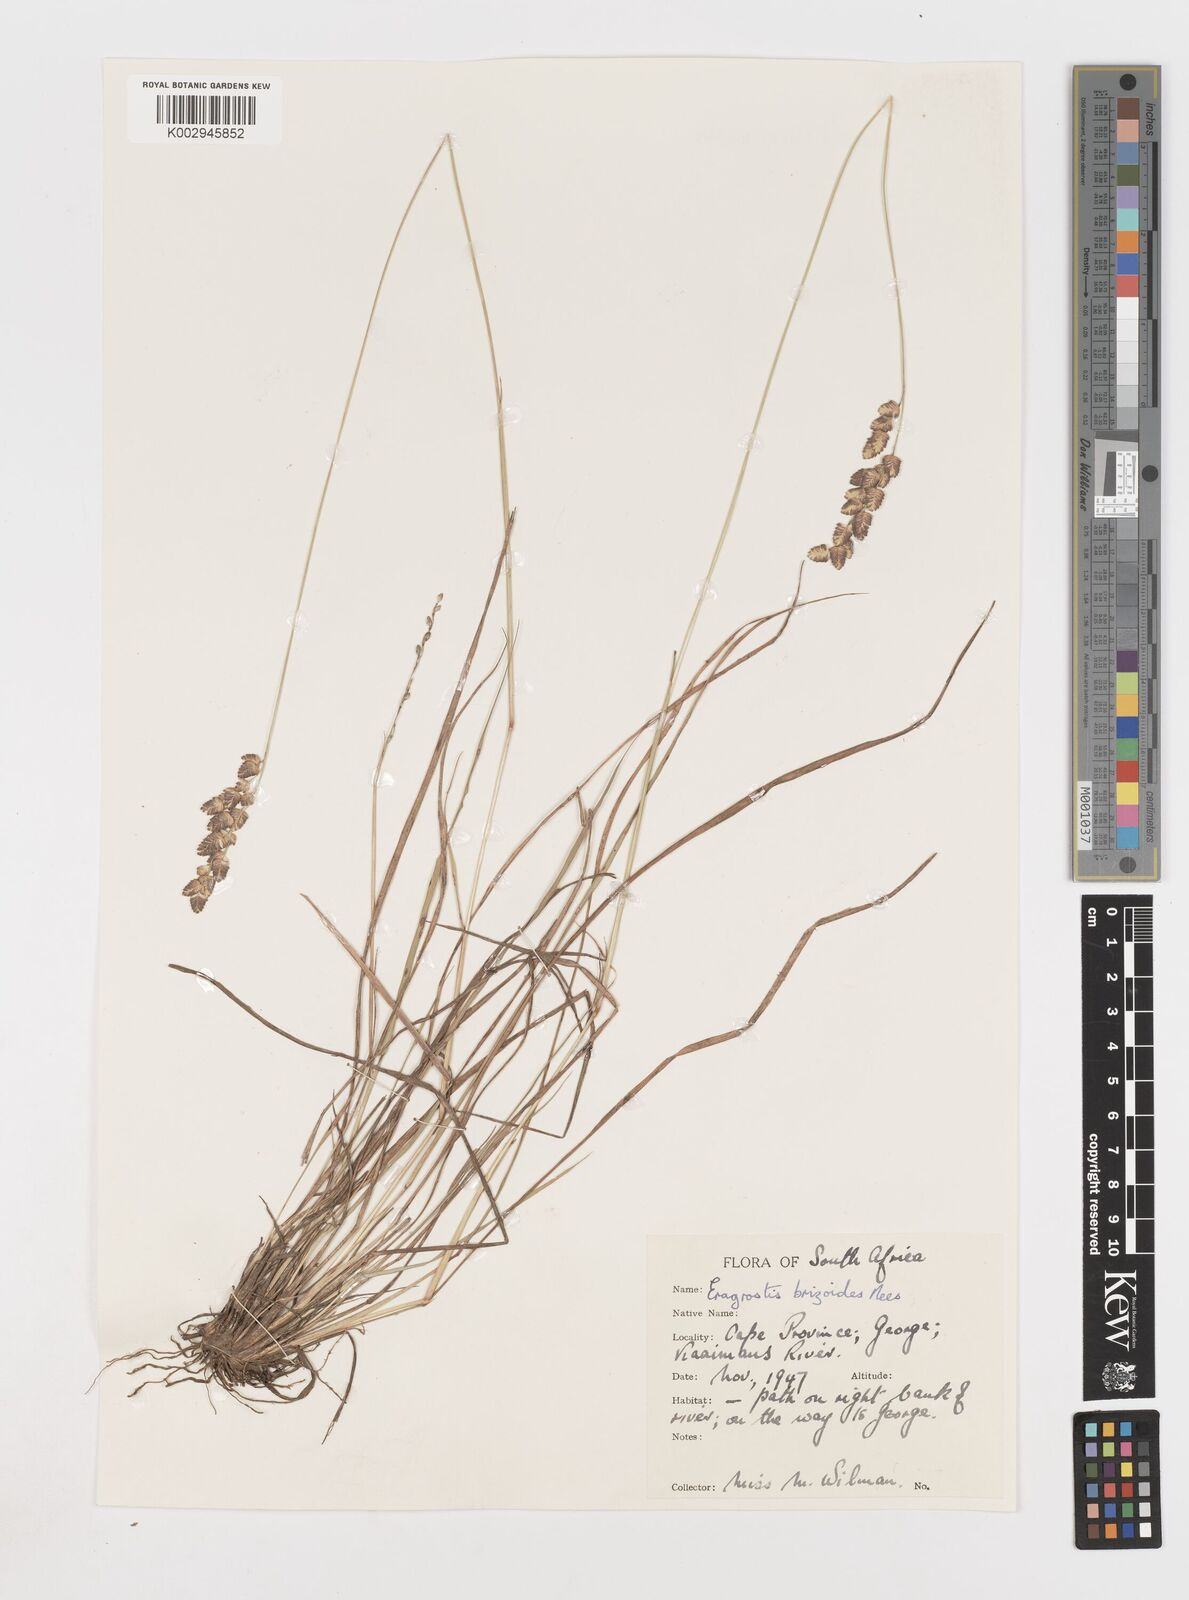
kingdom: Plantae
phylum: Tracheophyta
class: Liliopsida
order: Poales
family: Poaceae
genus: Eragrostis
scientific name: Eragrostis capensis
